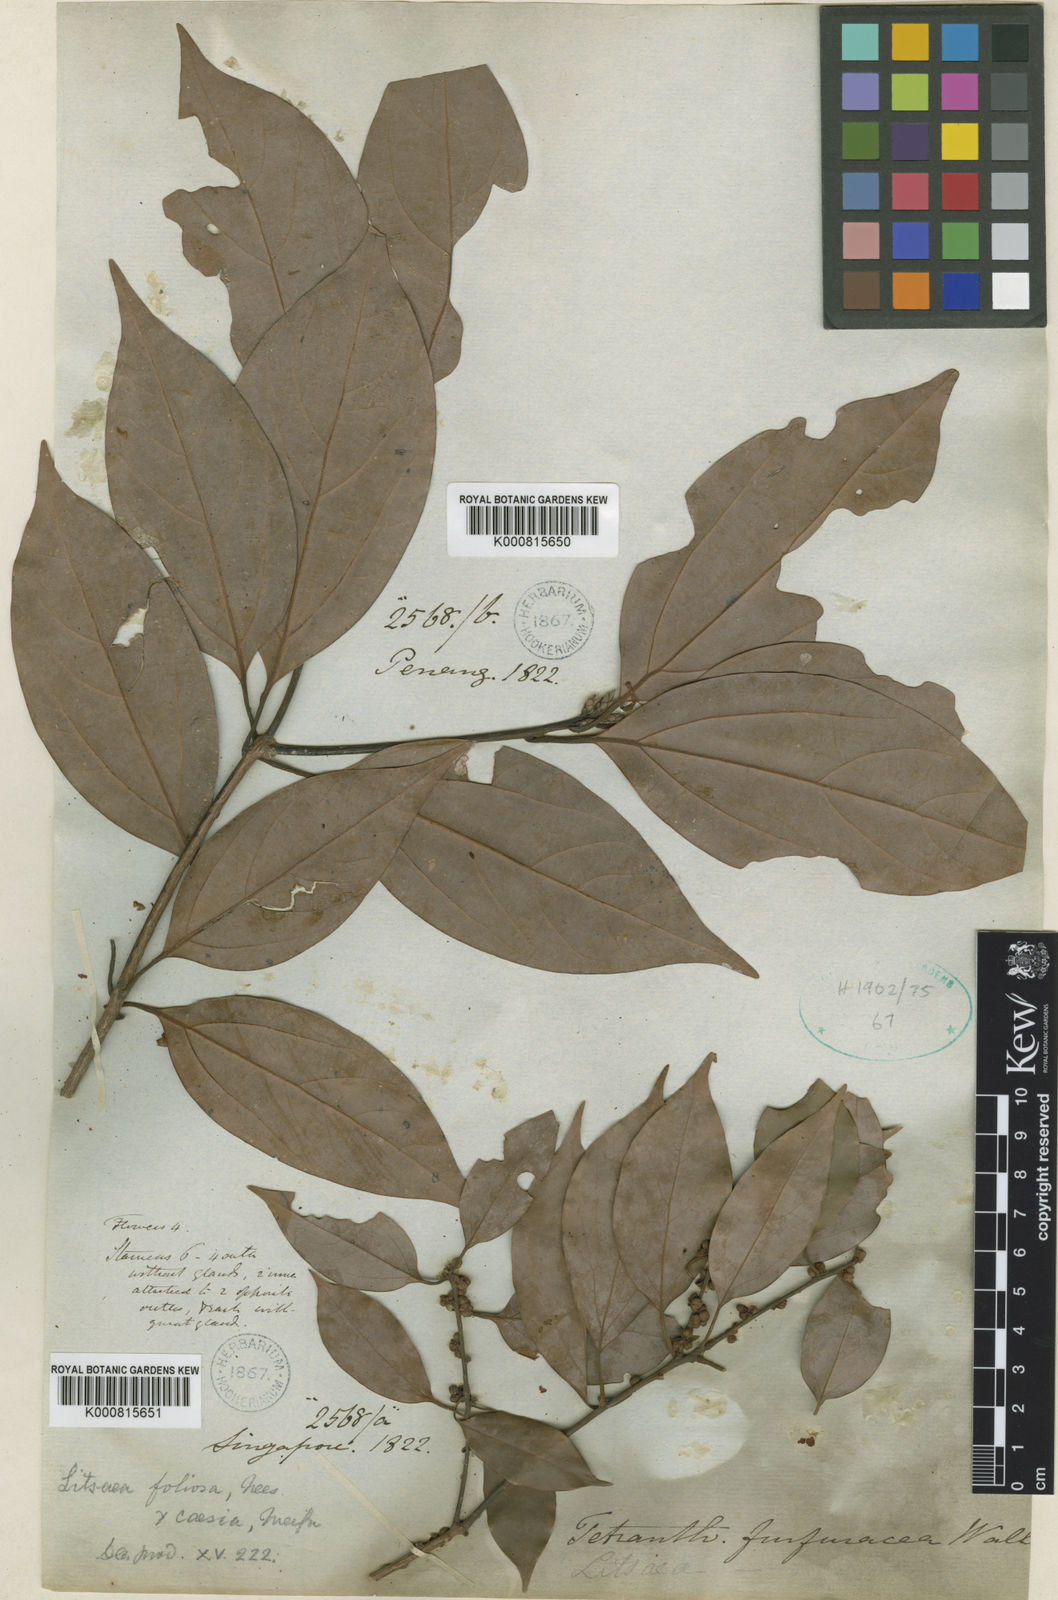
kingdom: Plantae
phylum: Tracheophyta
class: Magnoliopsida
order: Laurales
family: Lauraceae
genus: Neolitsea
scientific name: Neolitsea foliosa
